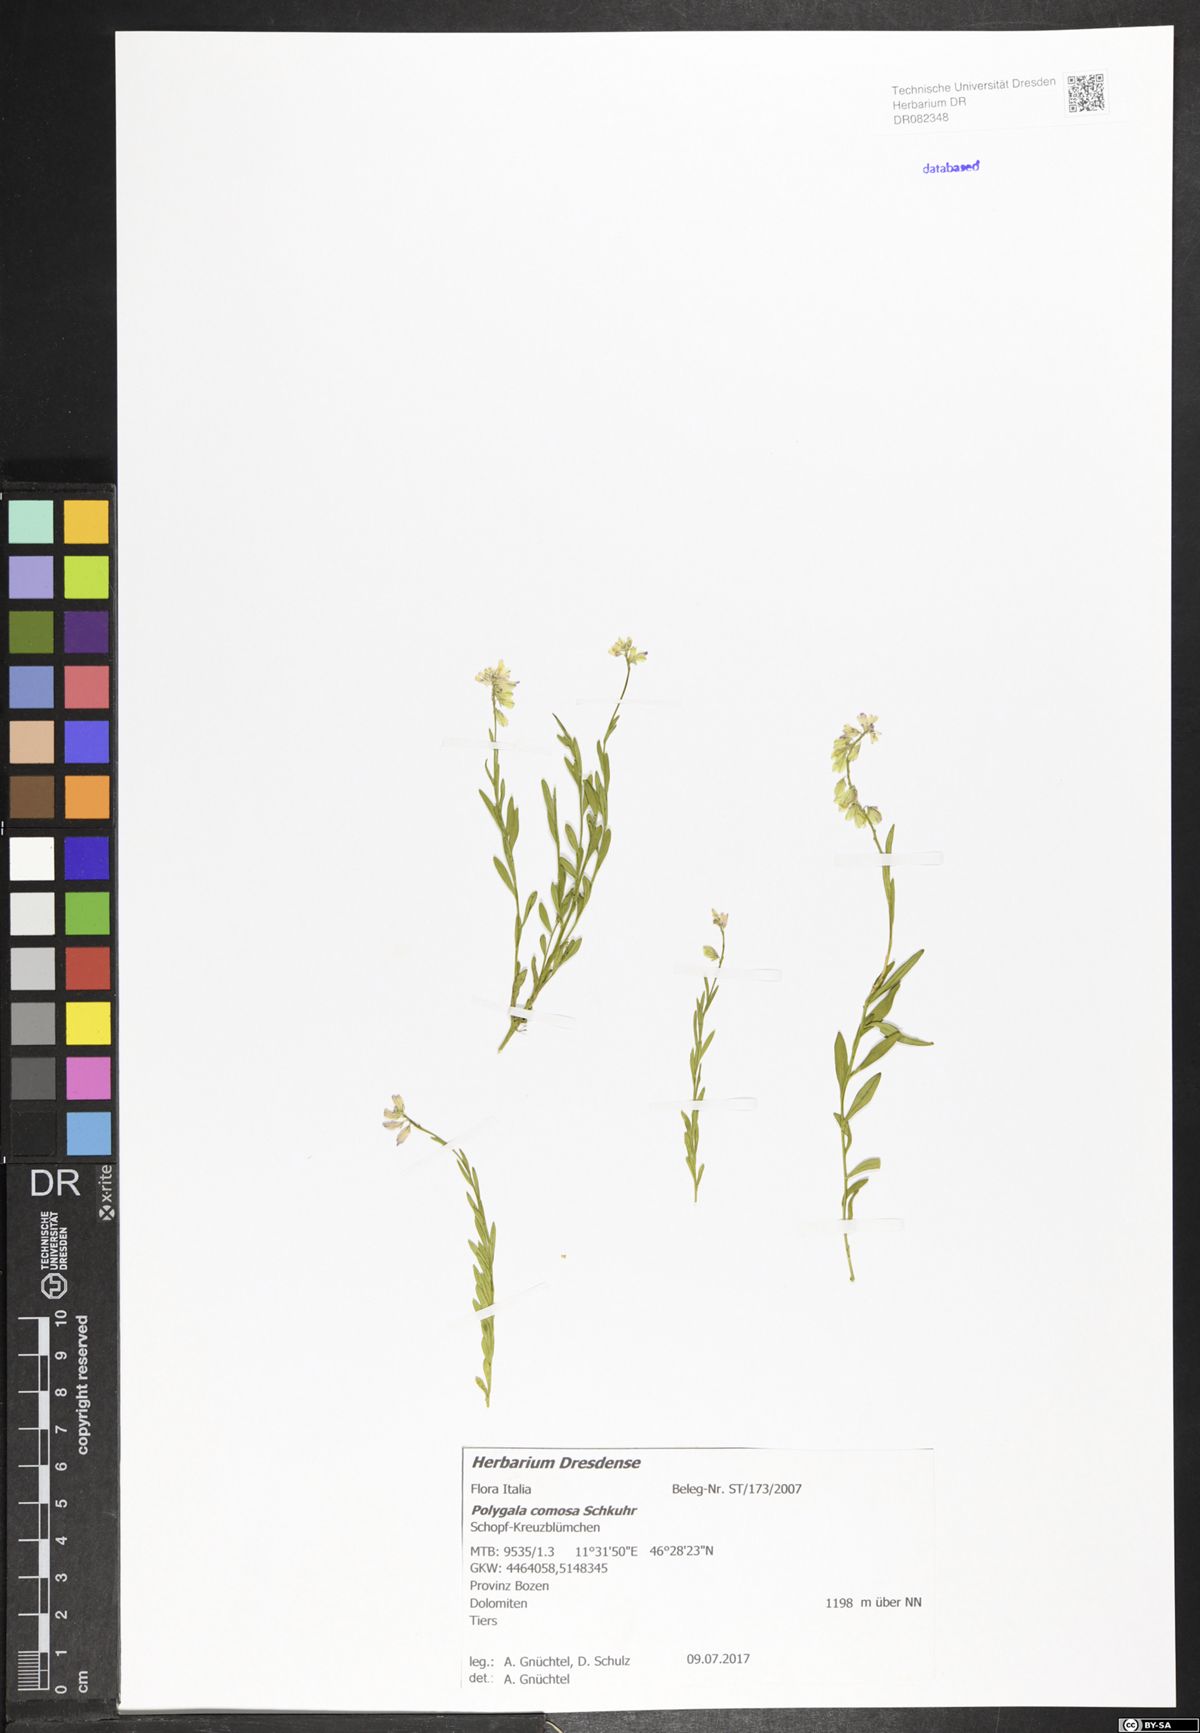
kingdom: Plantae
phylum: Tracheophyta
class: Magnoliopsida
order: Fabales
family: Polygalaceae
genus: Polygala
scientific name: Polygala comosa
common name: Tufted milkwort
